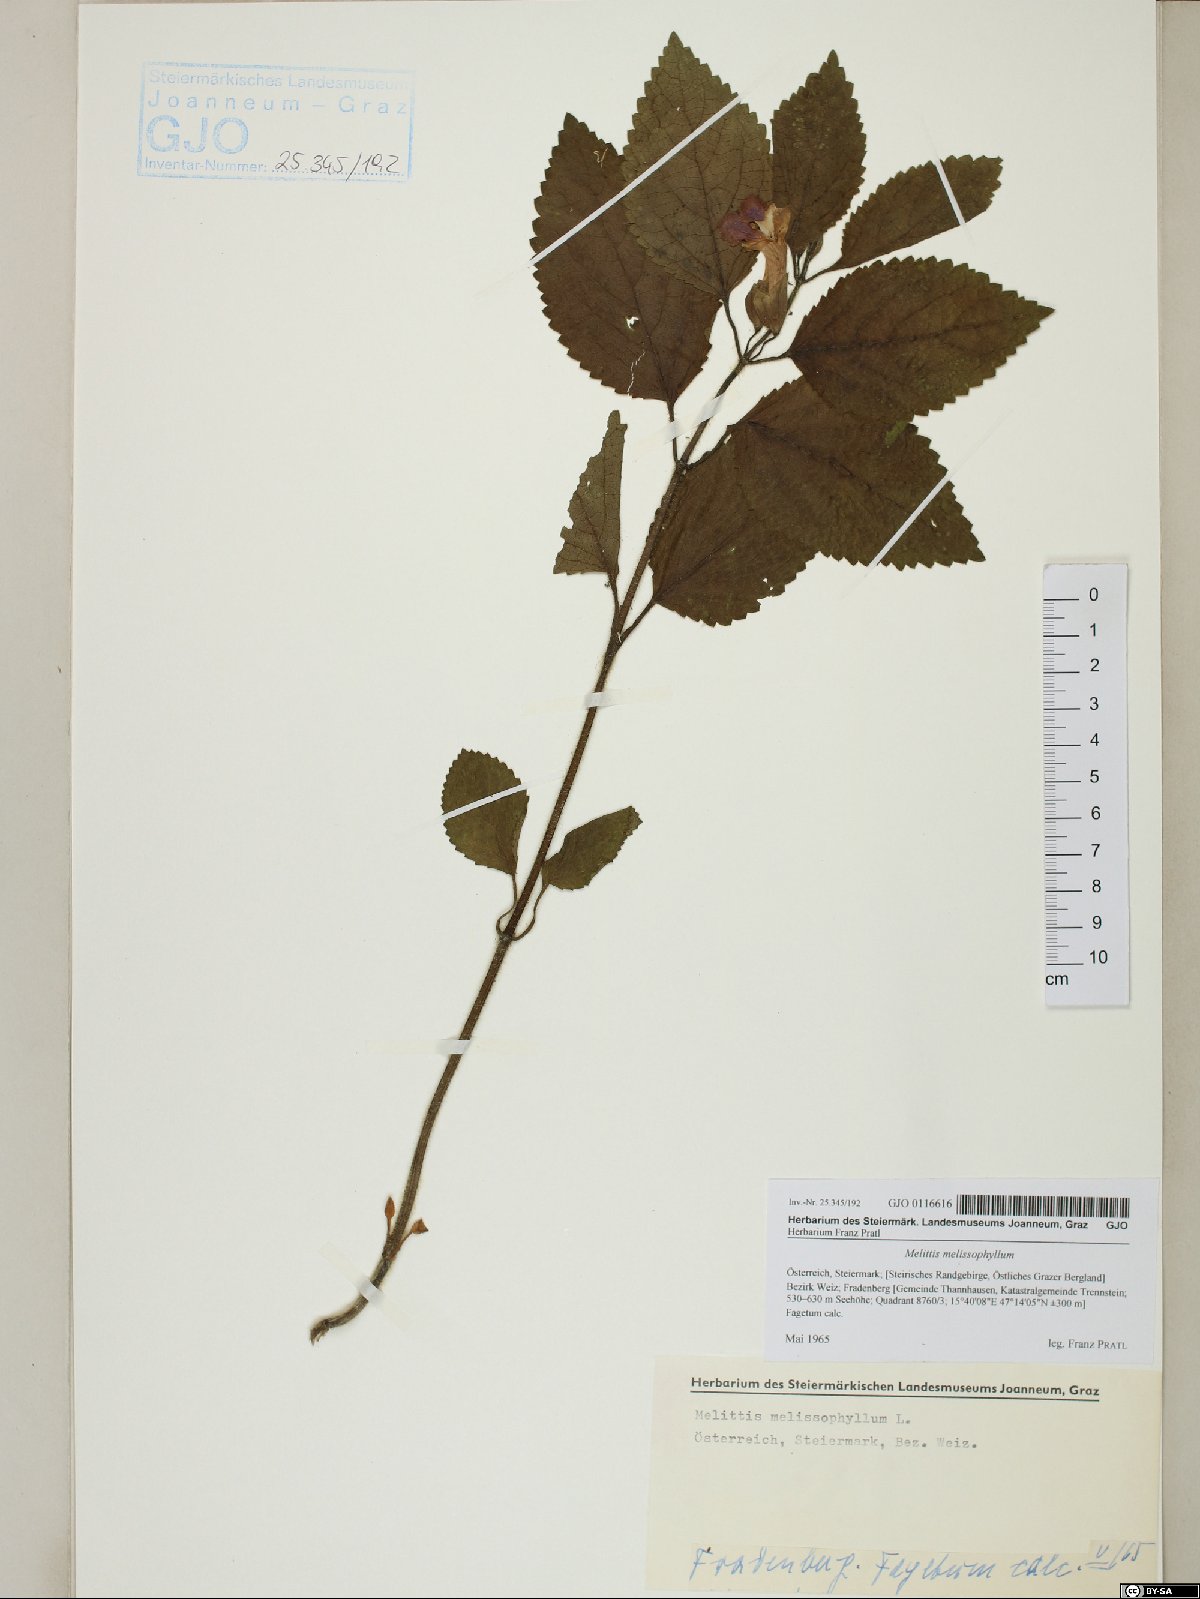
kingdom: Plantae
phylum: Tracheophyta
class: Magnoliopsida
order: Lamiales
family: Lamiaceae
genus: Melittis
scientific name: Melittis melissophyllum
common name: Bastard balm
